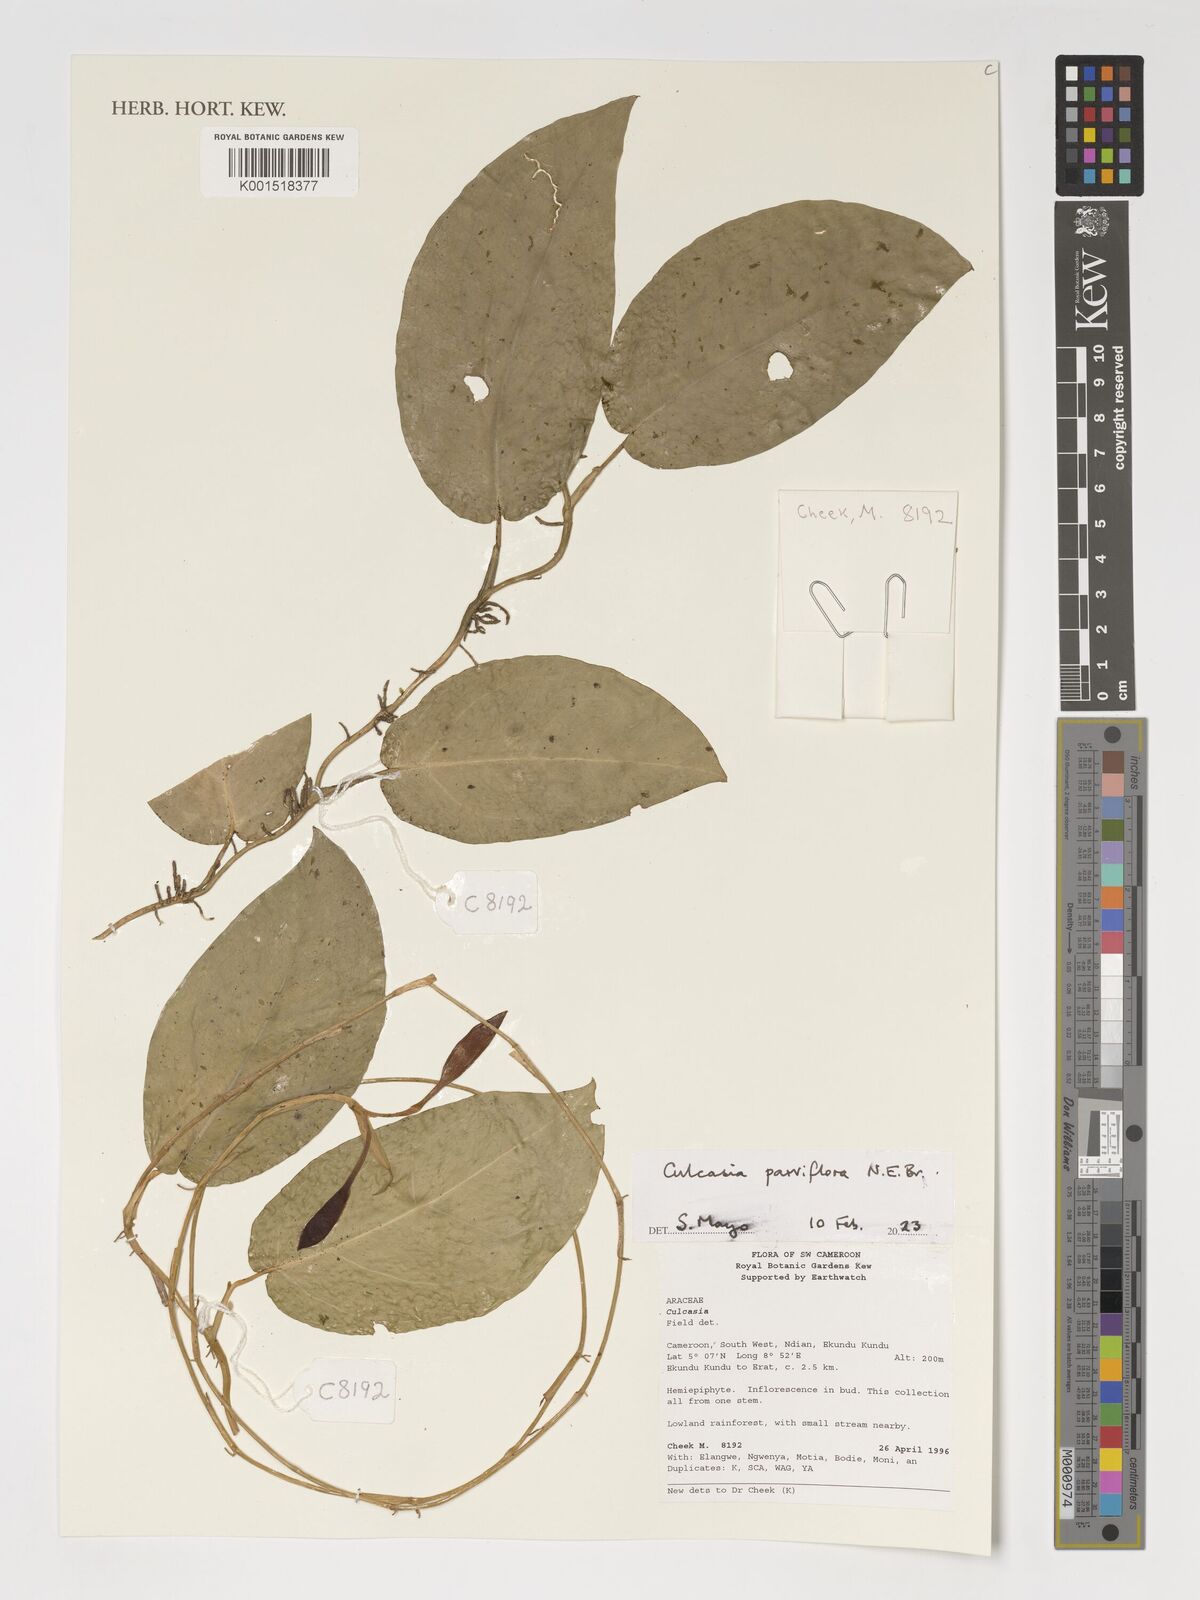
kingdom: Plantae
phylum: Tracheophyta
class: Liliopsida
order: Alismatales
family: Araceae
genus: Culcasia
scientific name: Culcasia parviflora
